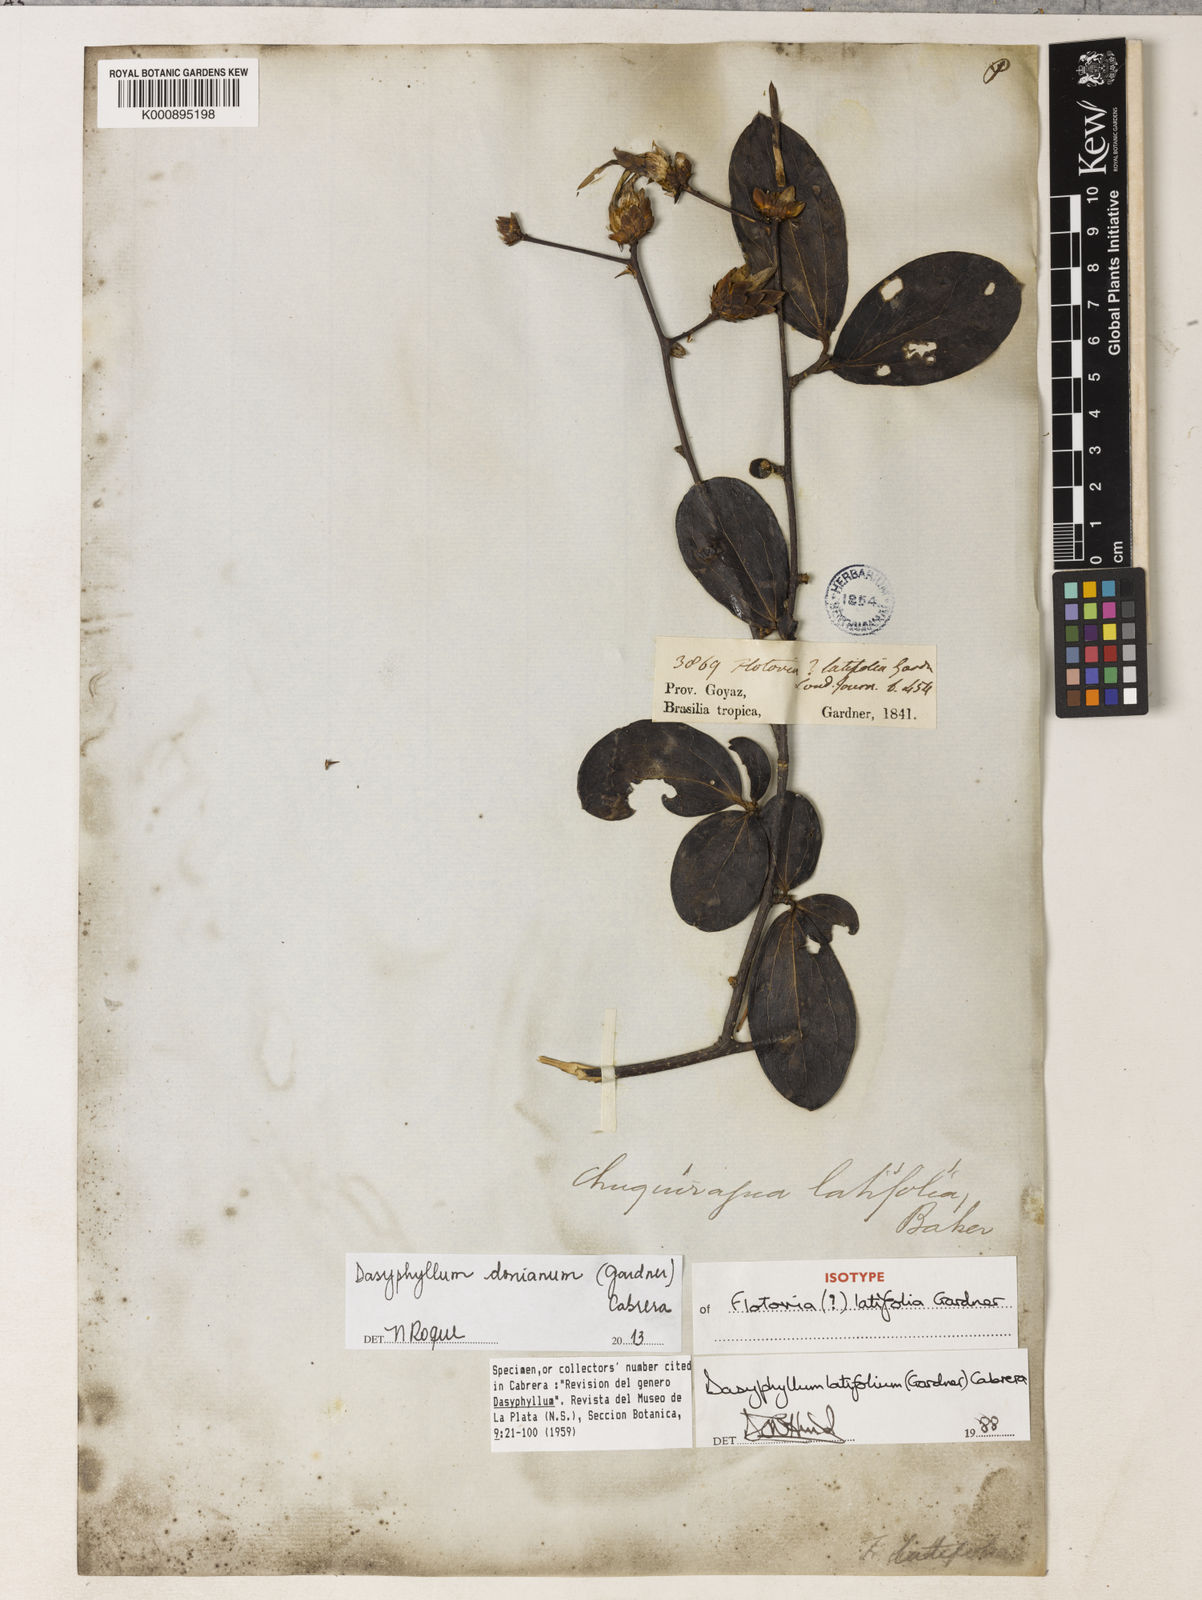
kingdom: Plantae
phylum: Tracheophyta
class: Magnoliopsida
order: Asterales
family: Asteraceae
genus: Dasyphyllum
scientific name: Dasyphyllum latifolium
